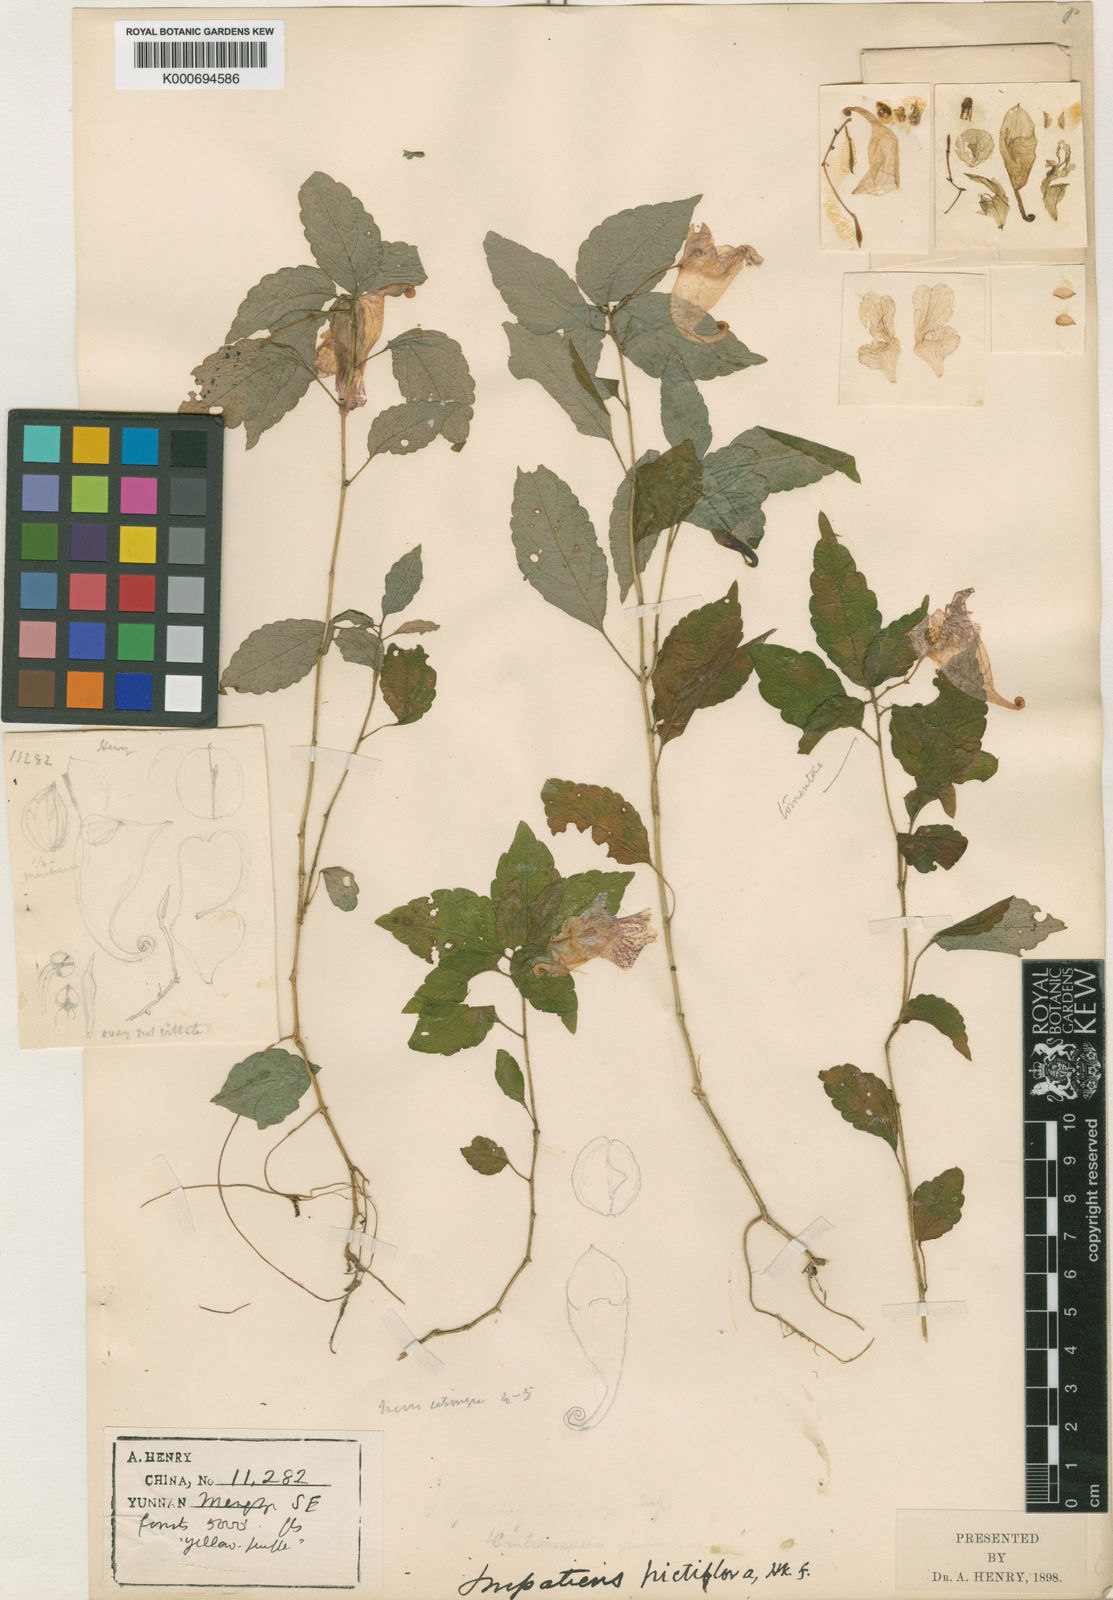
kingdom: Plantae
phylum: Tracheophyta
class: Magnoliopsida
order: Ericales
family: Balsaminaceae
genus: Impatiens
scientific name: Impatiens procumbens
